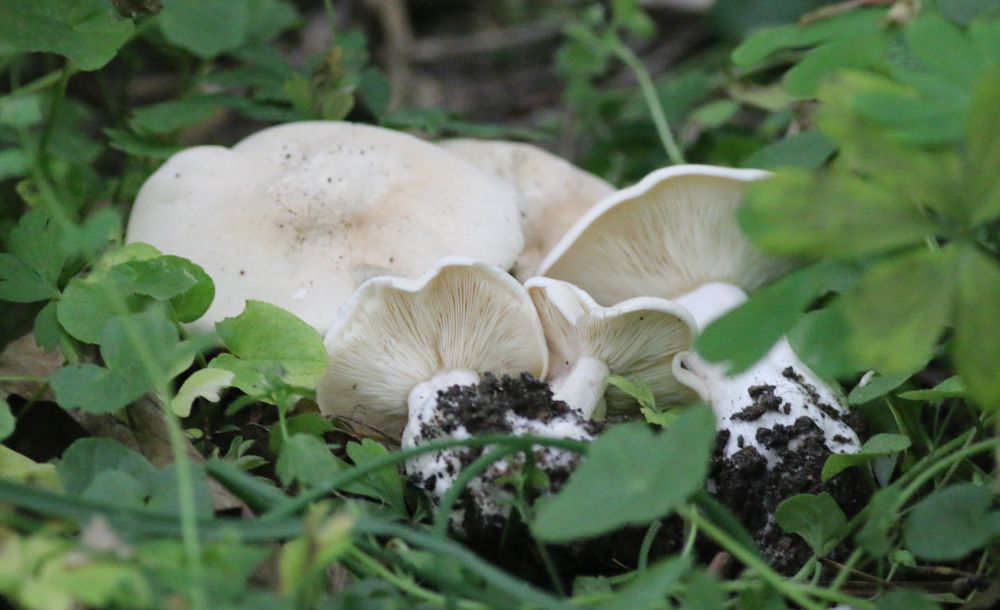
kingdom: Fungi
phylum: Basidiomycota
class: Agaricomycetes
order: Agaricales
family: Lyophyllaceae
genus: Calocybe
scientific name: Calocybe gambosa
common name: vårmusseron
